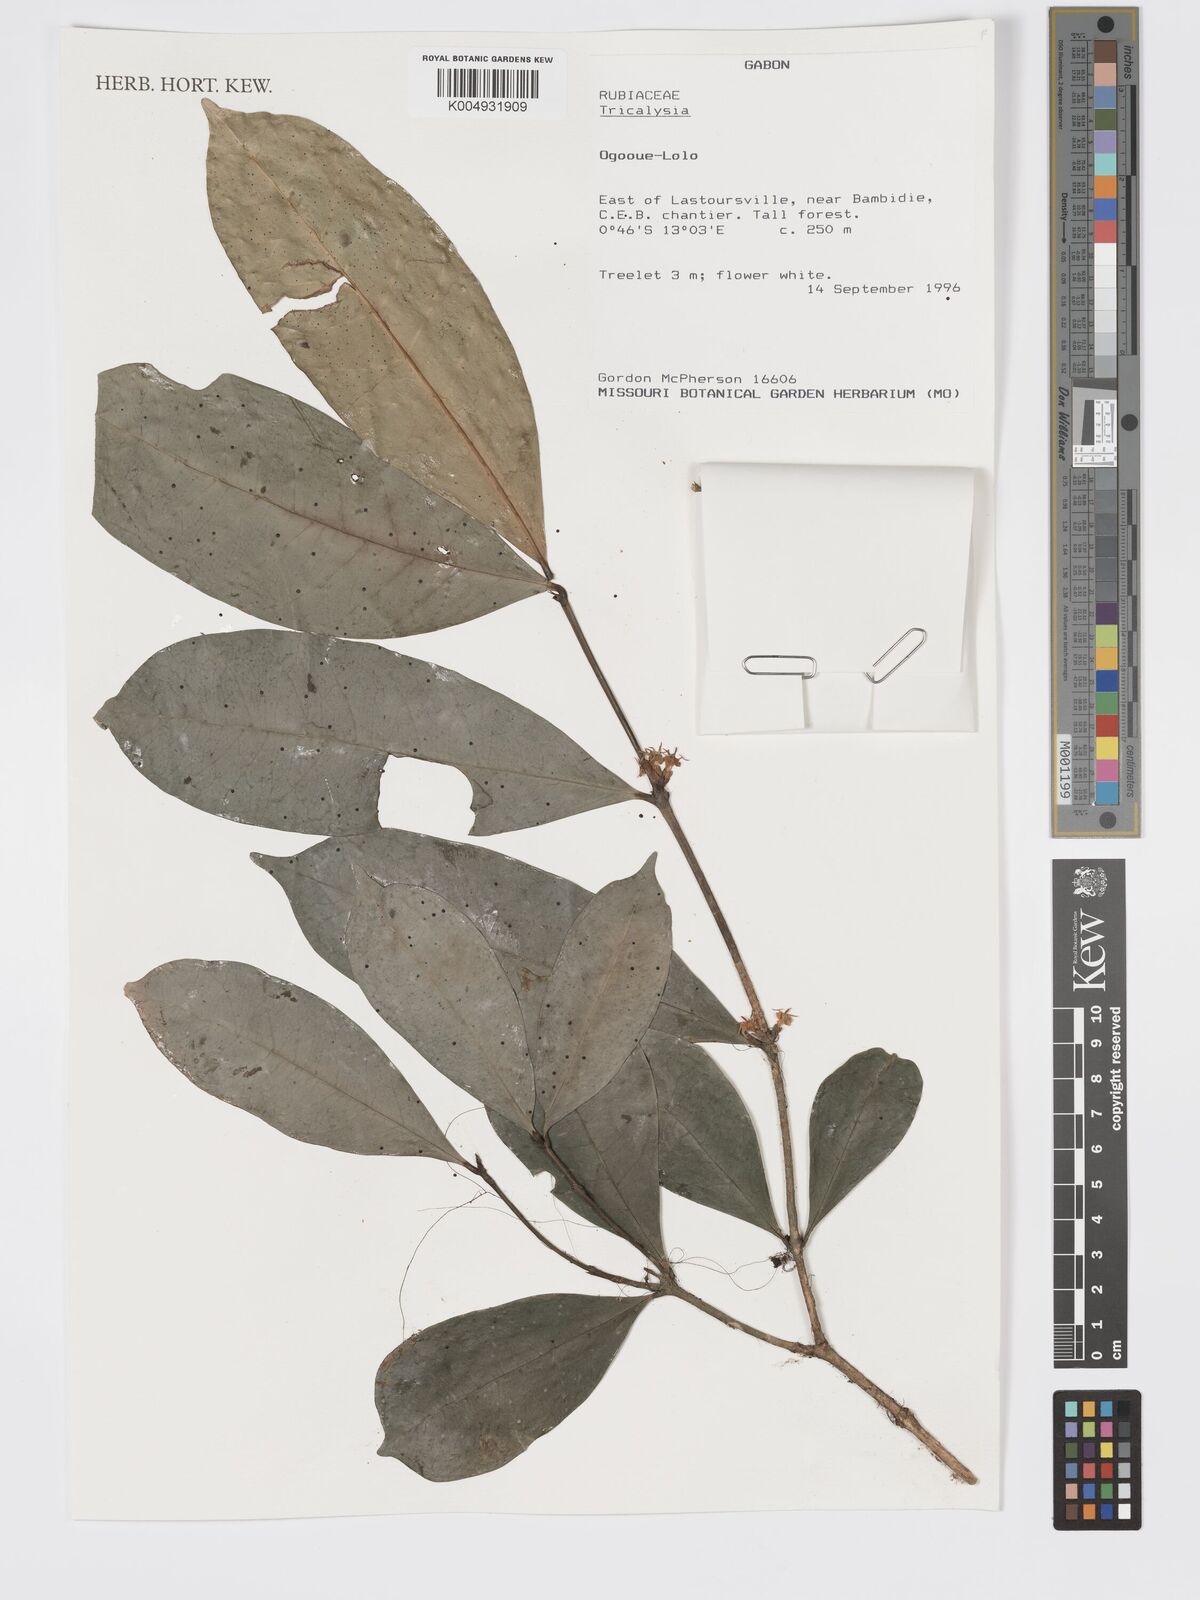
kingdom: Plantae
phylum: Tracheophyta
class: Magnoliopsida
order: Gentianales
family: Rubiaceae
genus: Tricalysia
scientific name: Tricalysia
